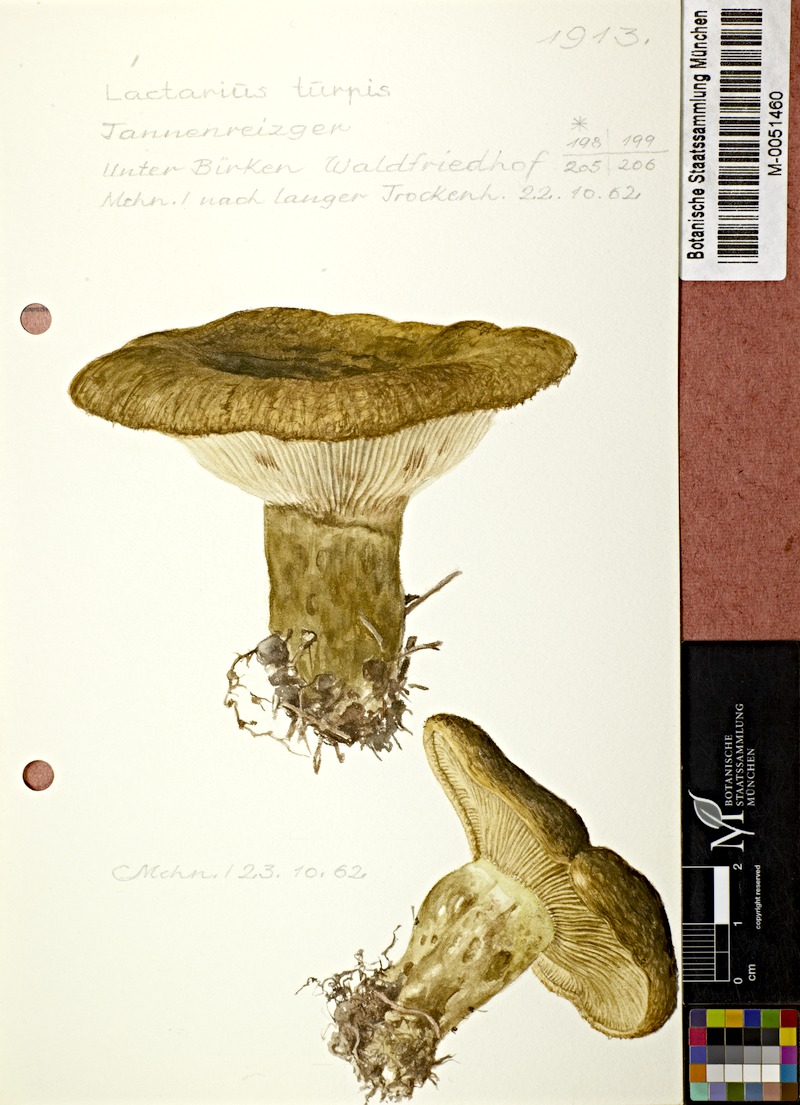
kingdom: Fungi
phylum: Basidiomycota
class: Agaricomycetes
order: Russulales
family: Russulaceae
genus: Lactarius
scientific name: Lactarius plumbeus
